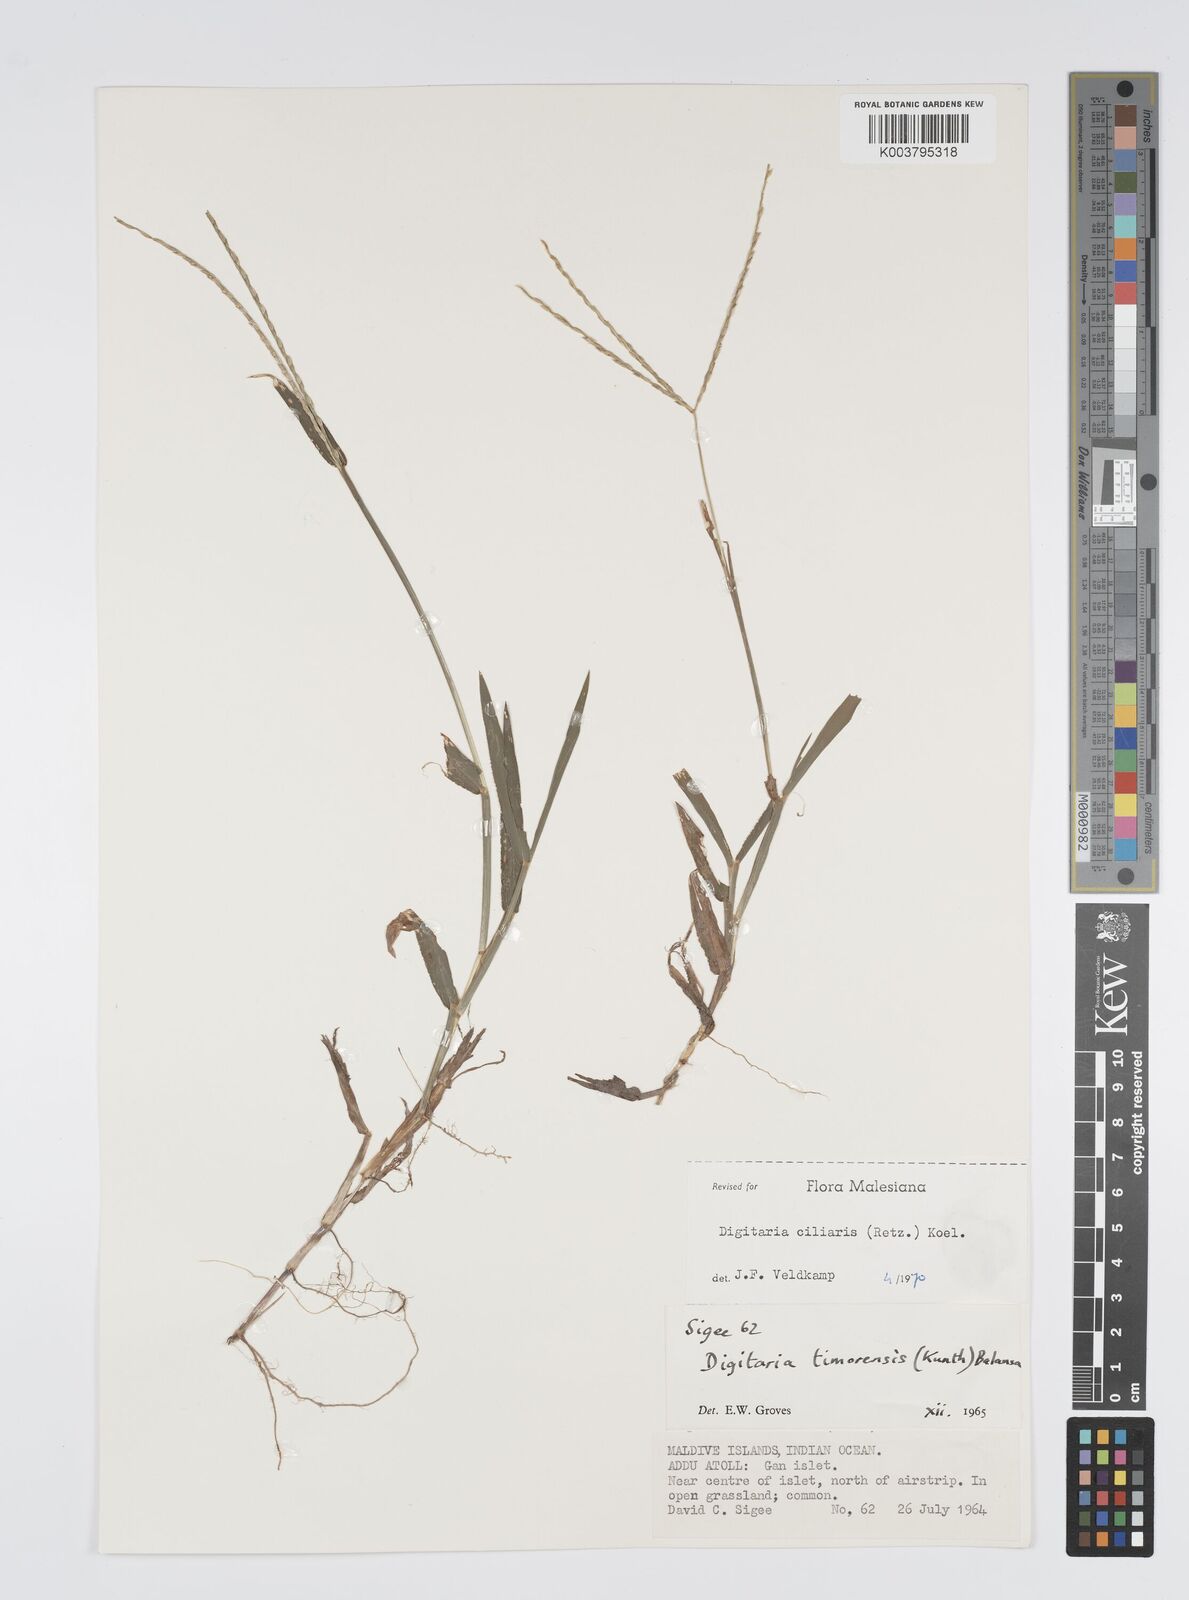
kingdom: Plantae
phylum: Tracheophyta
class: Liliopsida
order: Poales
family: Poaceae
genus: Digitaria
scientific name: Digitaria ciliaris
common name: Tropical finger-grass
